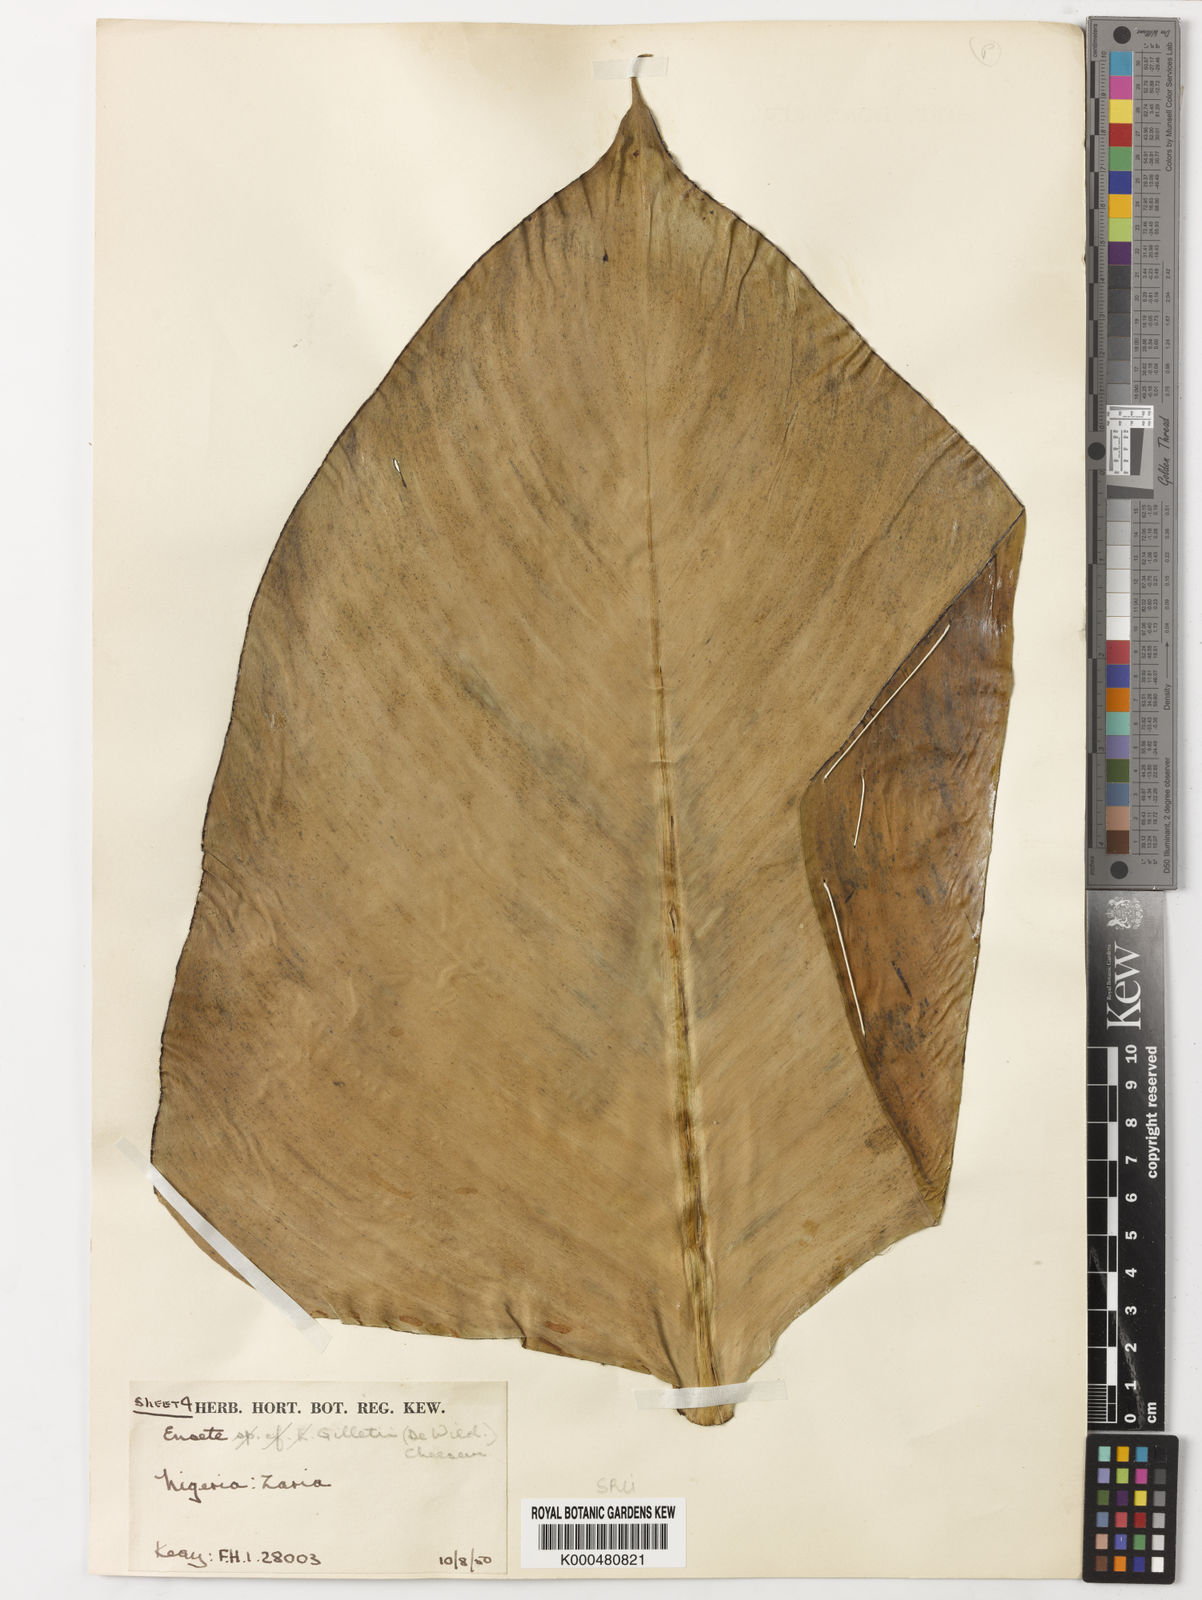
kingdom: Plantae
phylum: Tracheophyta
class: Liliopsida
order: Zingiberales
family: Musaceae
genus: Ensete
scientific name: Ensete livingstonianum
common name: Livingston's banana
